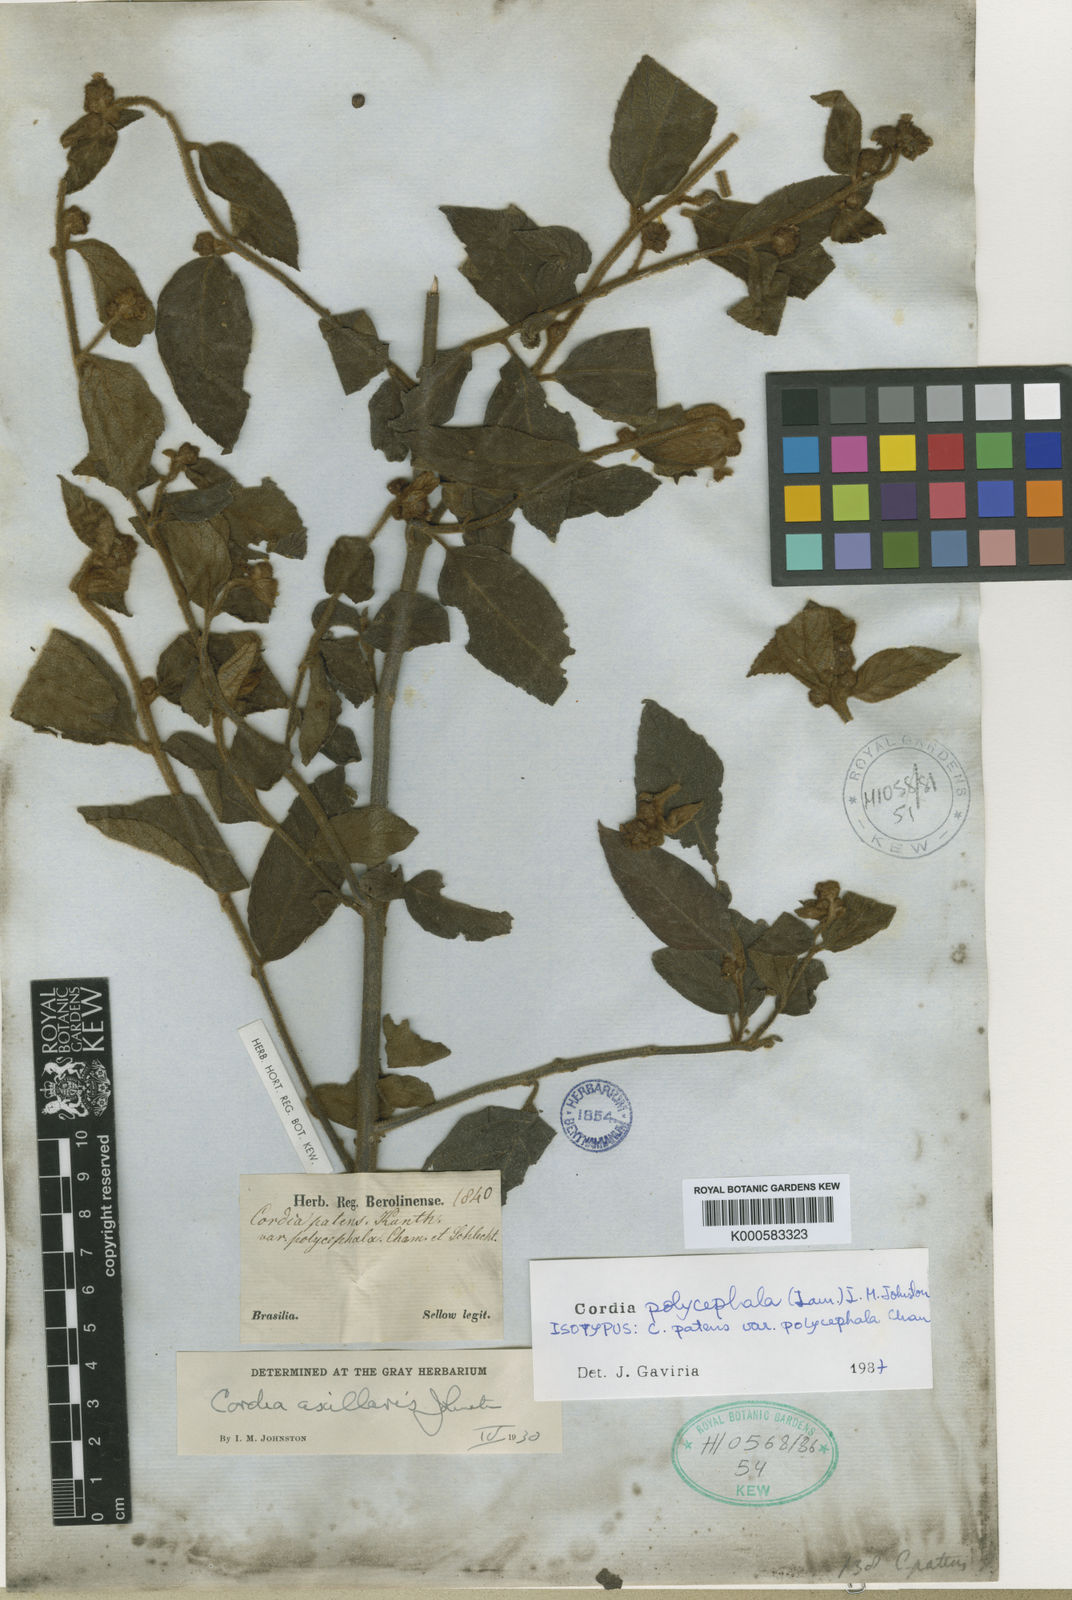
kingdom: Plantae
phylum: Tracheophyta
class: Magnoliopsida
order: Boraginales
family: Cordiaceae
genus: Varronia
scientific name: Varronia discolor
